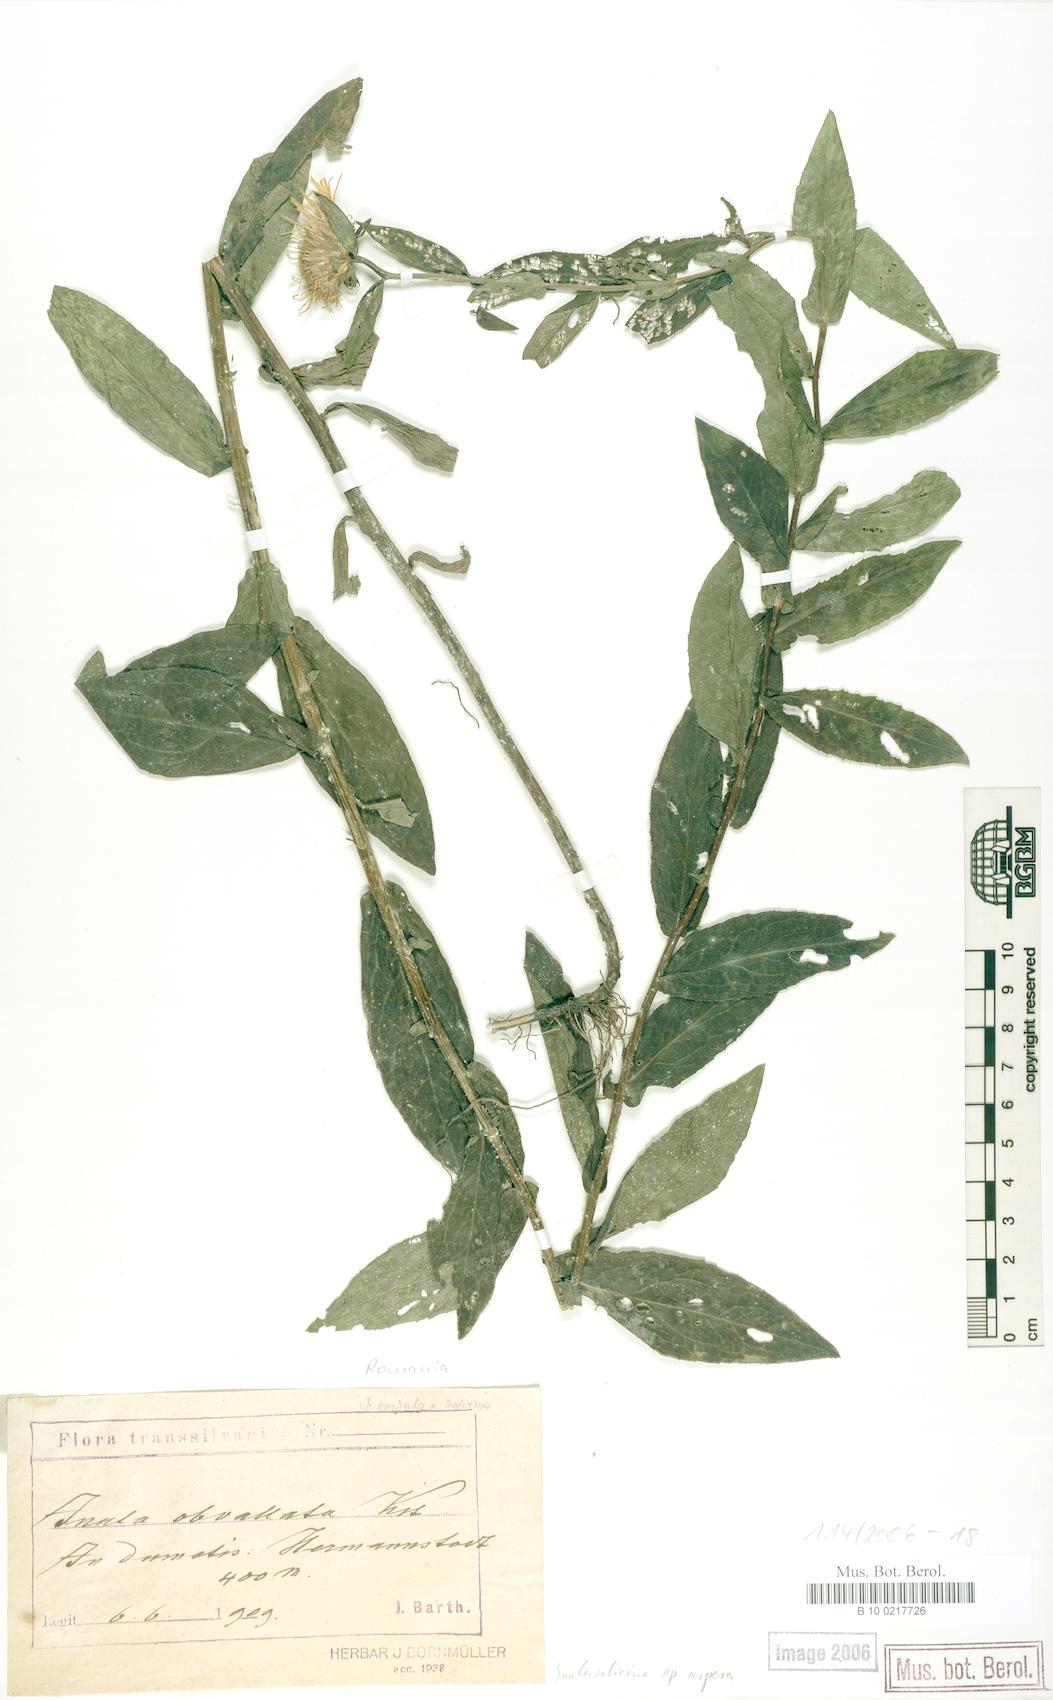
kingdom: Plantae
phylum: Tracheophyta
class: Magnoliopsida
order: Asterales
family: Asteraceae
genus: Pentanema
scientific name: Pentanema salicinum
